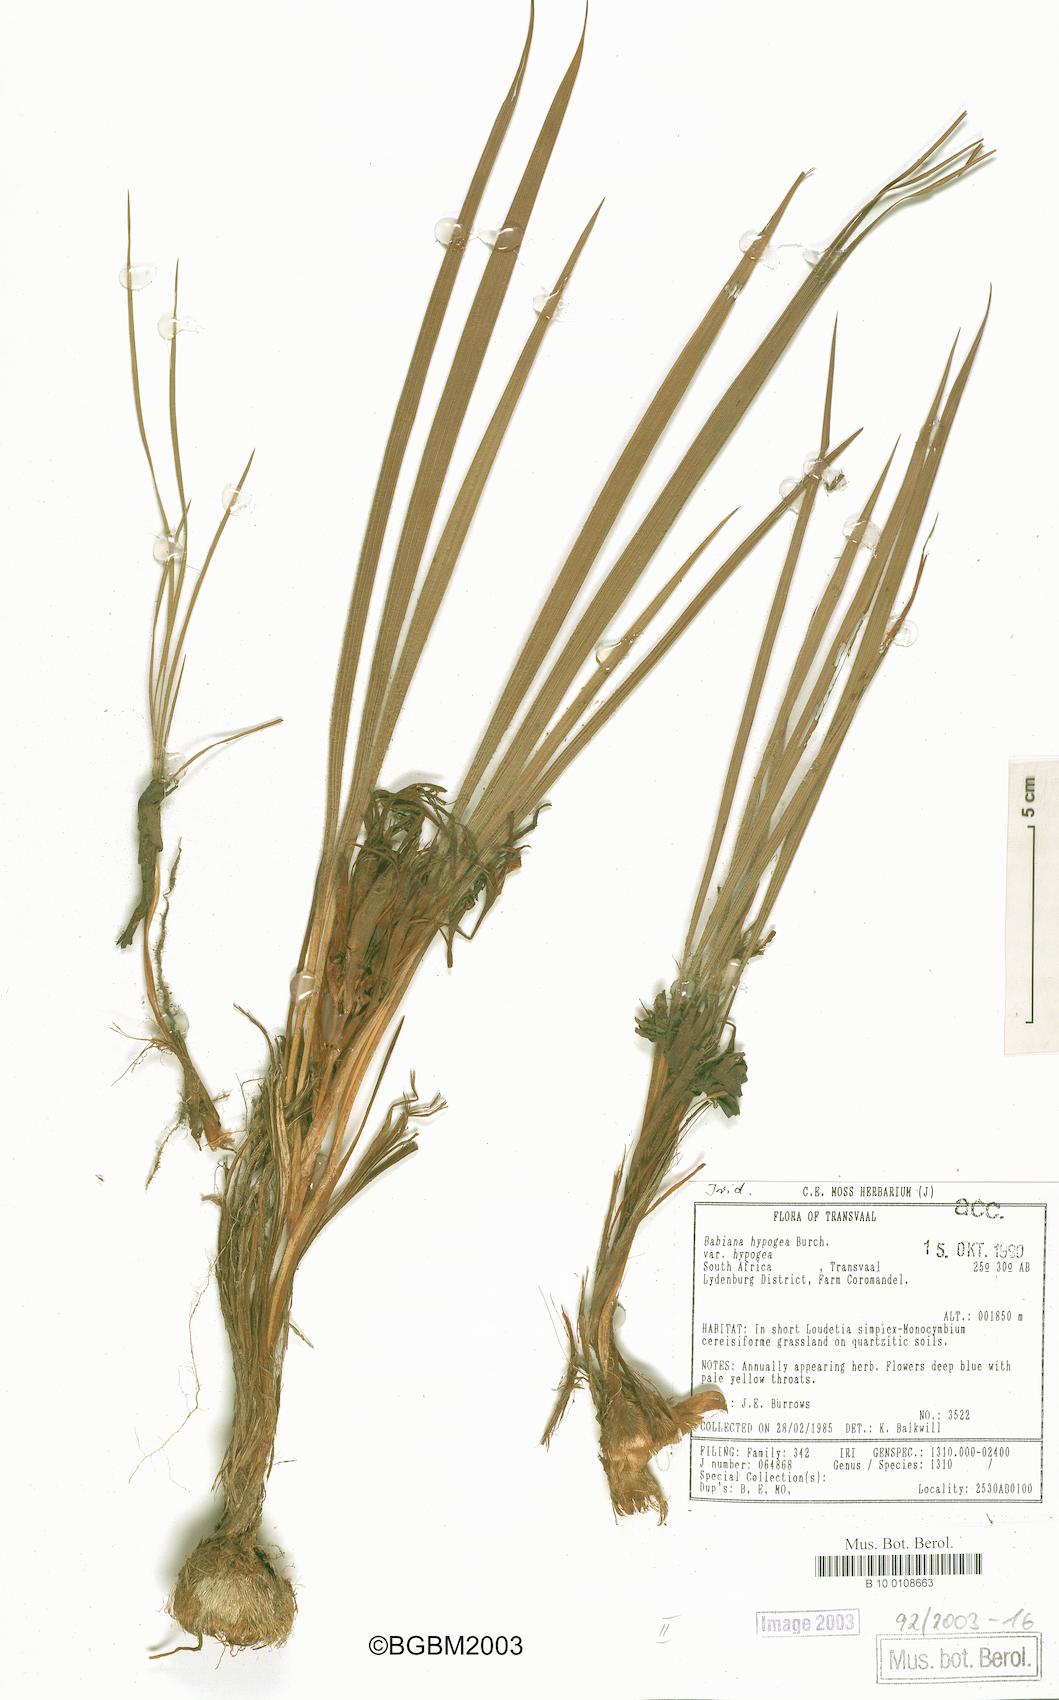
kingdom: Plantae
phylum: Tracheophyta
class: Liliopsida
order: Asparagales
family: Iridaceae
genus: Babiana
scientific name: Babiana hypogaea
